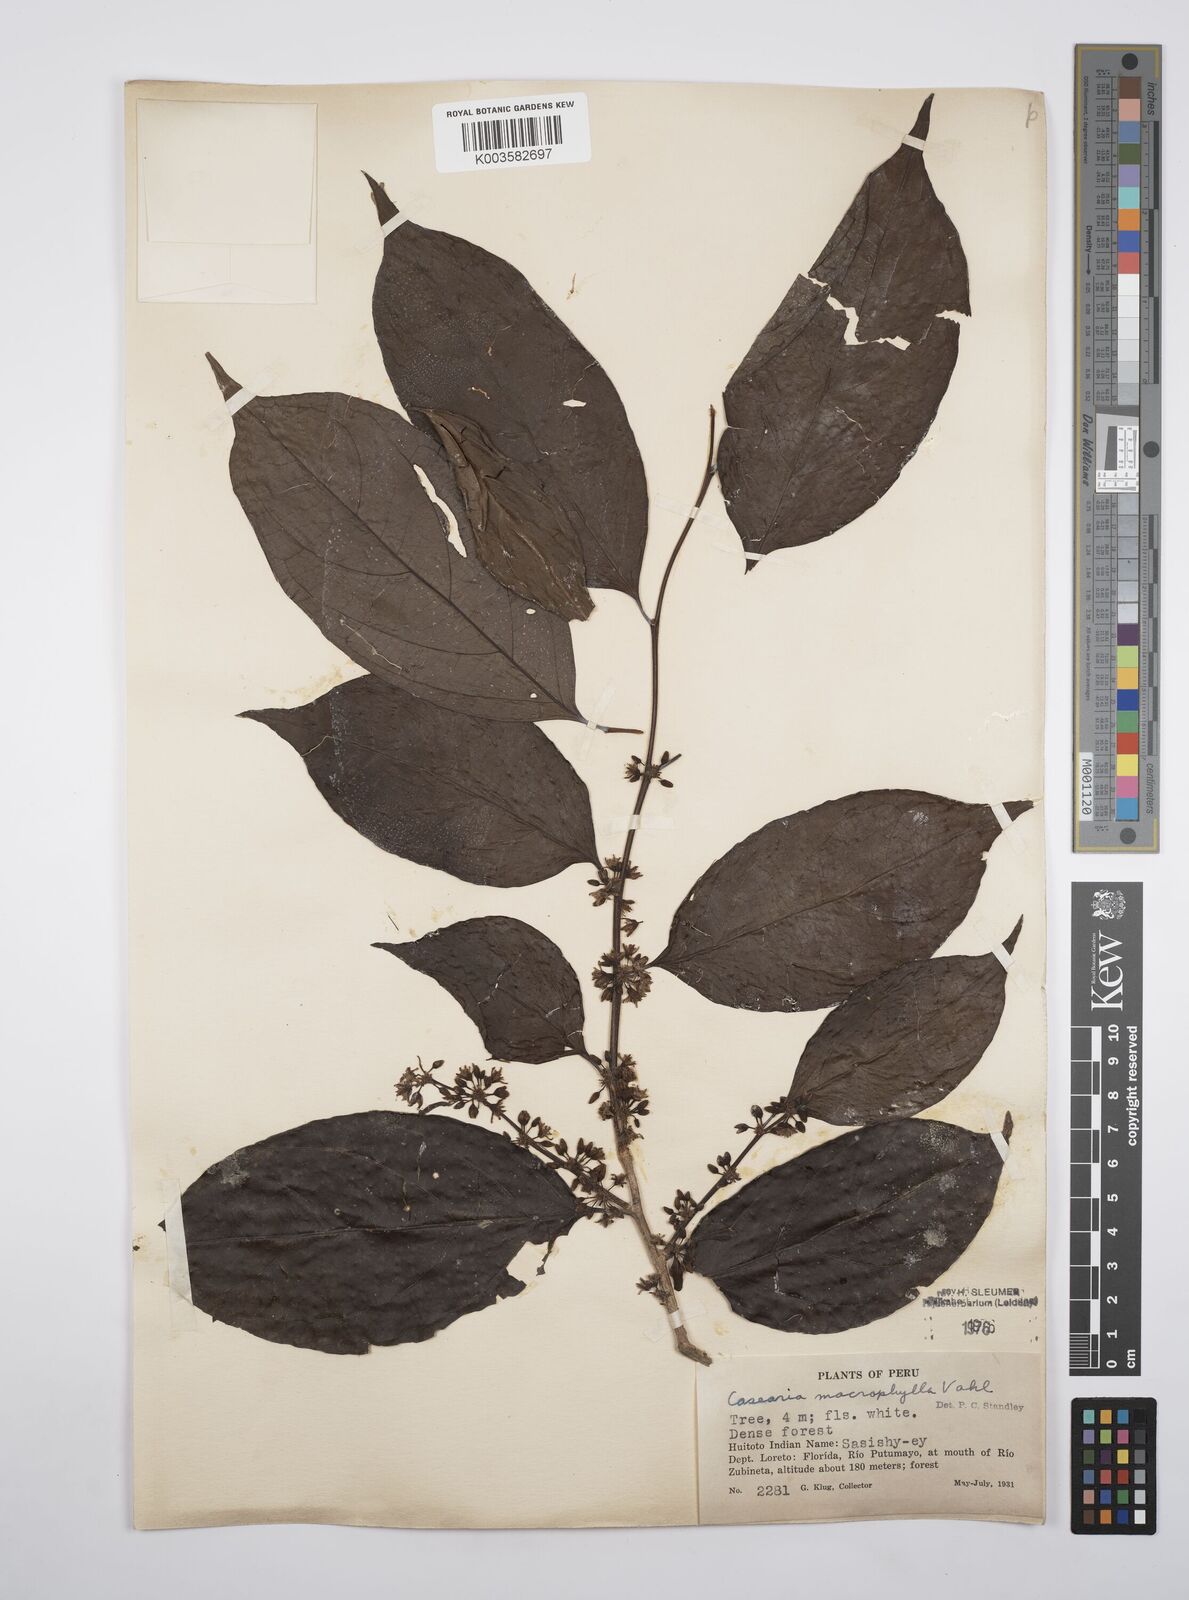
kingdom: Plantae
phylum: Tracheophyta
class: Magnoliopsida
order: Malpighiales
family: Salicaceae
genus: Casearia
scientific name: Casearia pitumba
